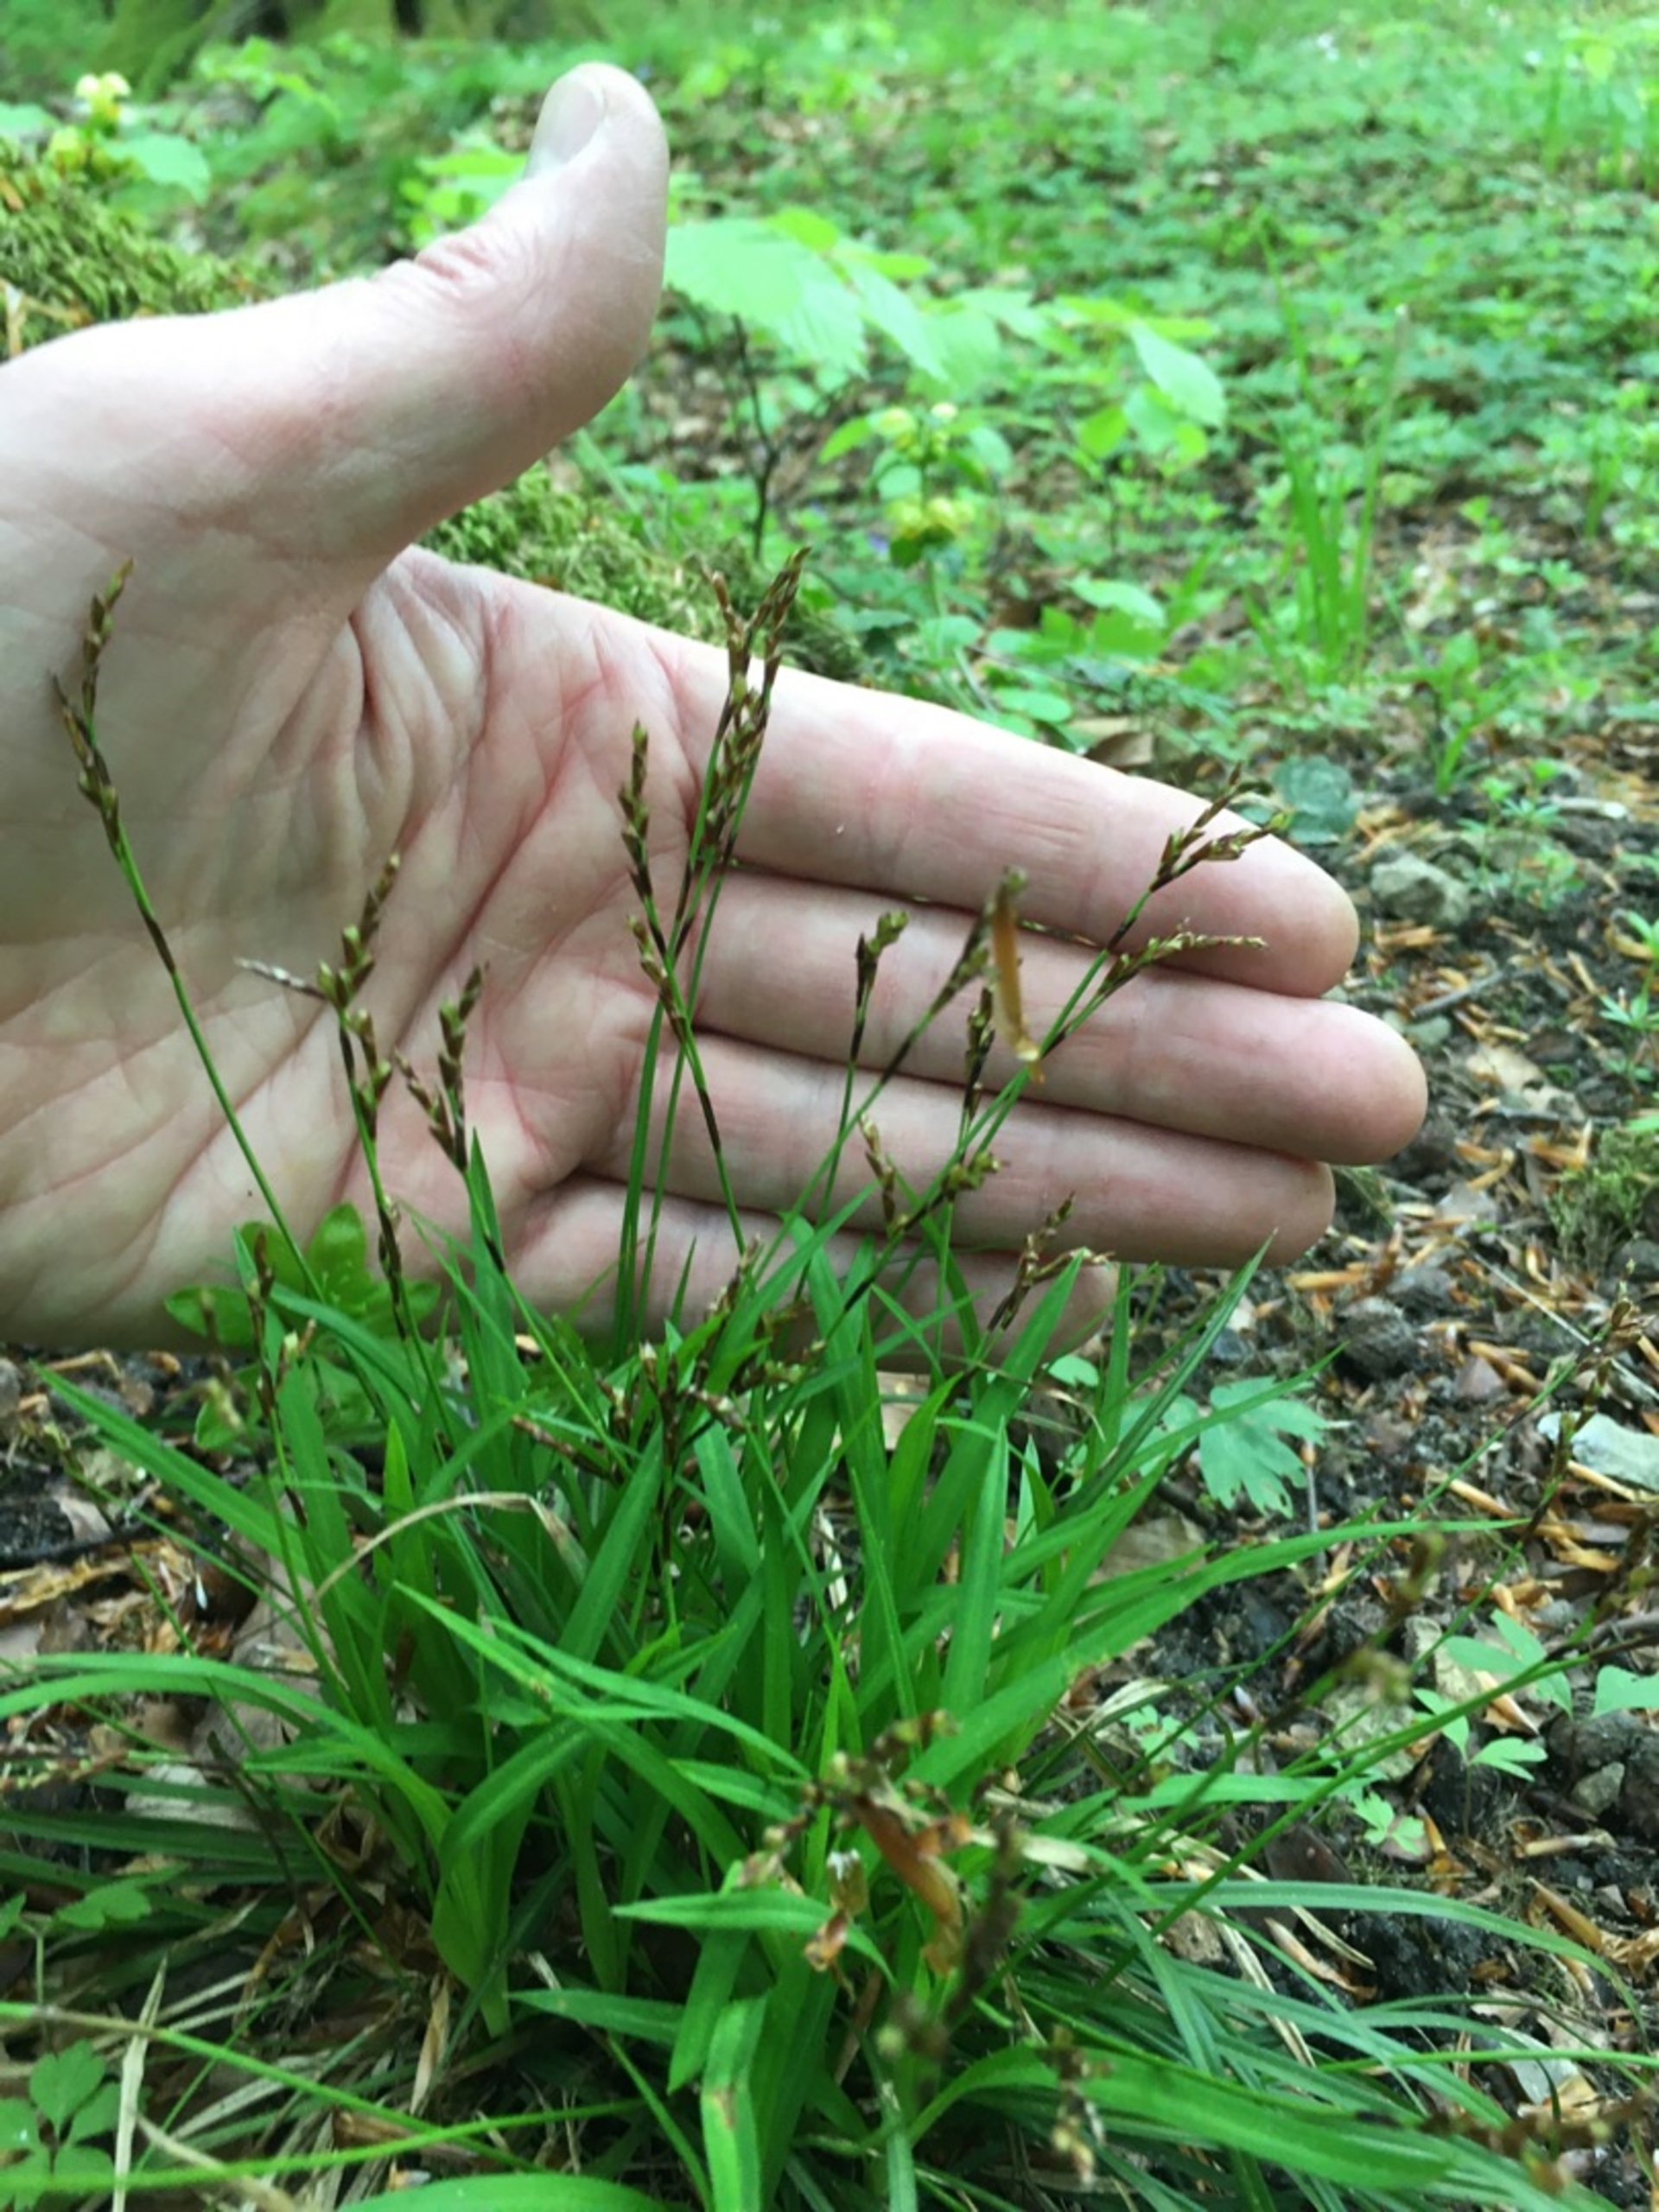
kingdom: Plantae
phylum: Tracheophyta
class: Liliopsida
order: Poales
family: Cyperaceae
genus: Carex
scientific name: Carex digitata
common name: Finger-star
